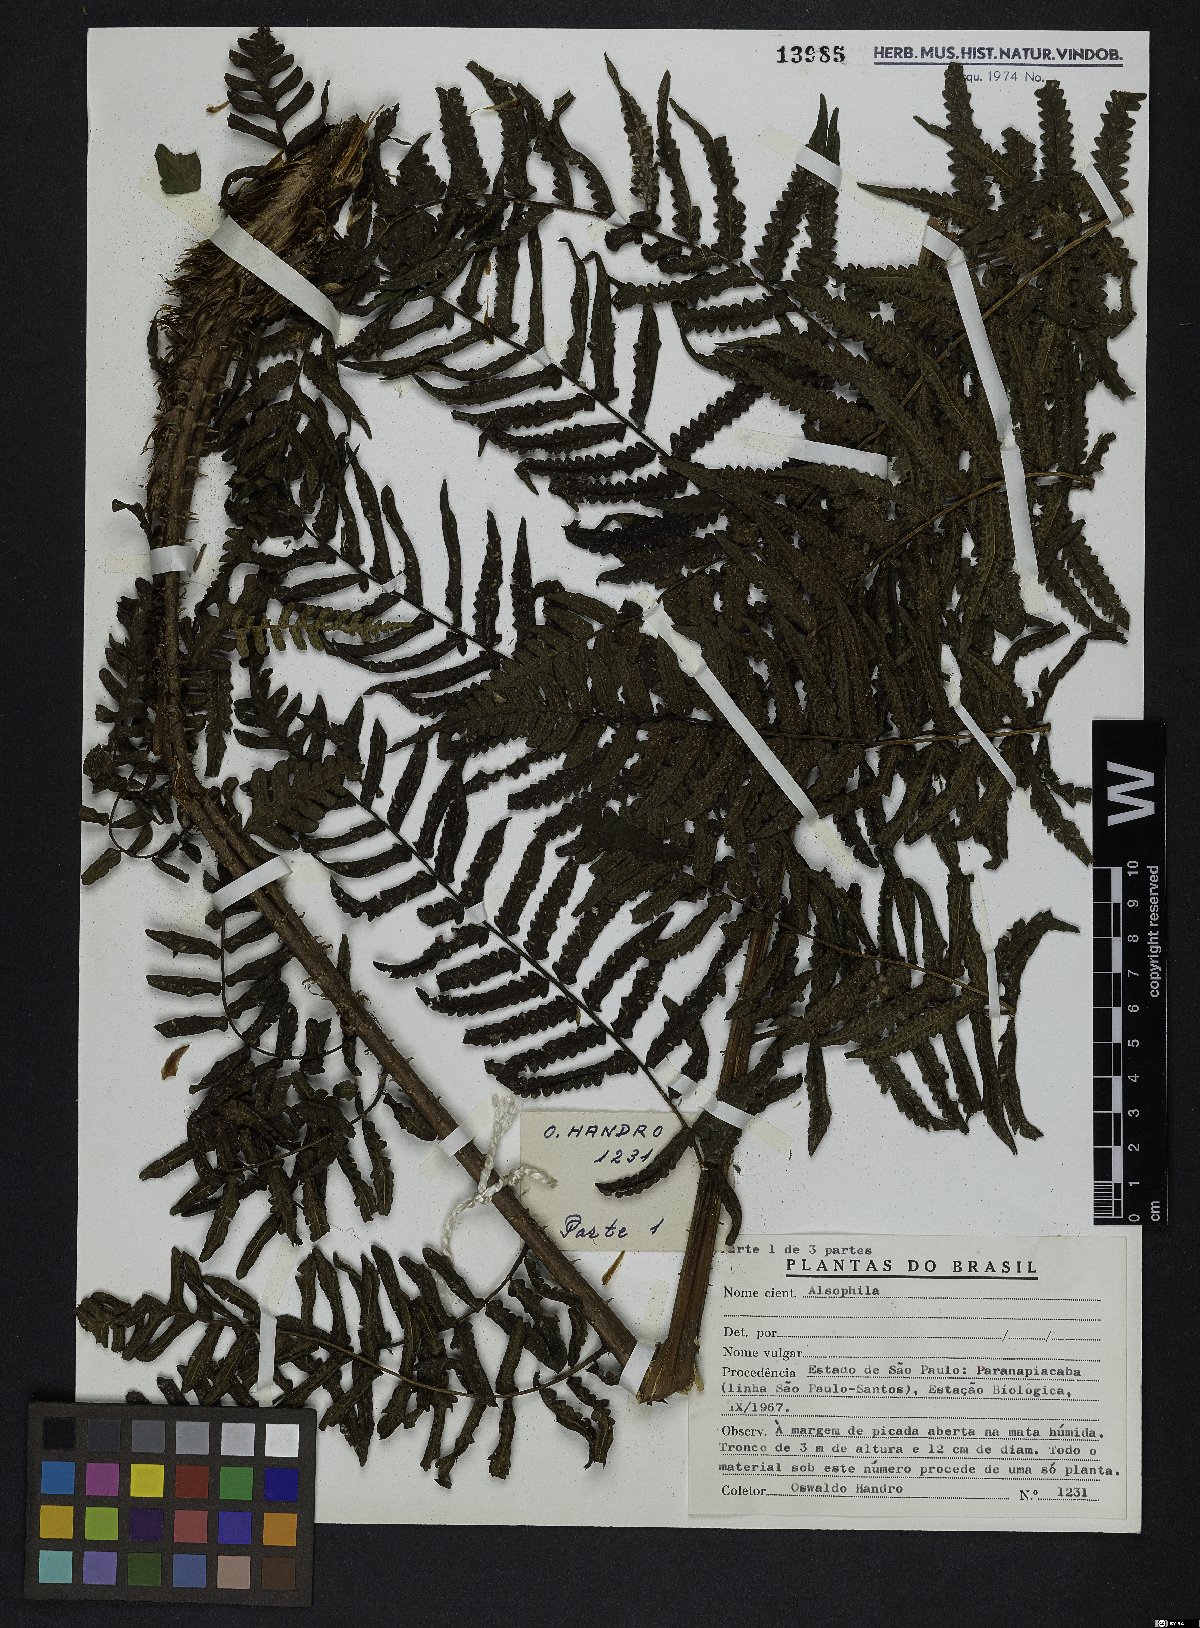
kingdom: Plantae
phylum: Tracheophyta
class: Polypodiopsida
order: Cyatheales
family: Cyatheaceae
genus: Alsophila
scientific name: Alsophila
